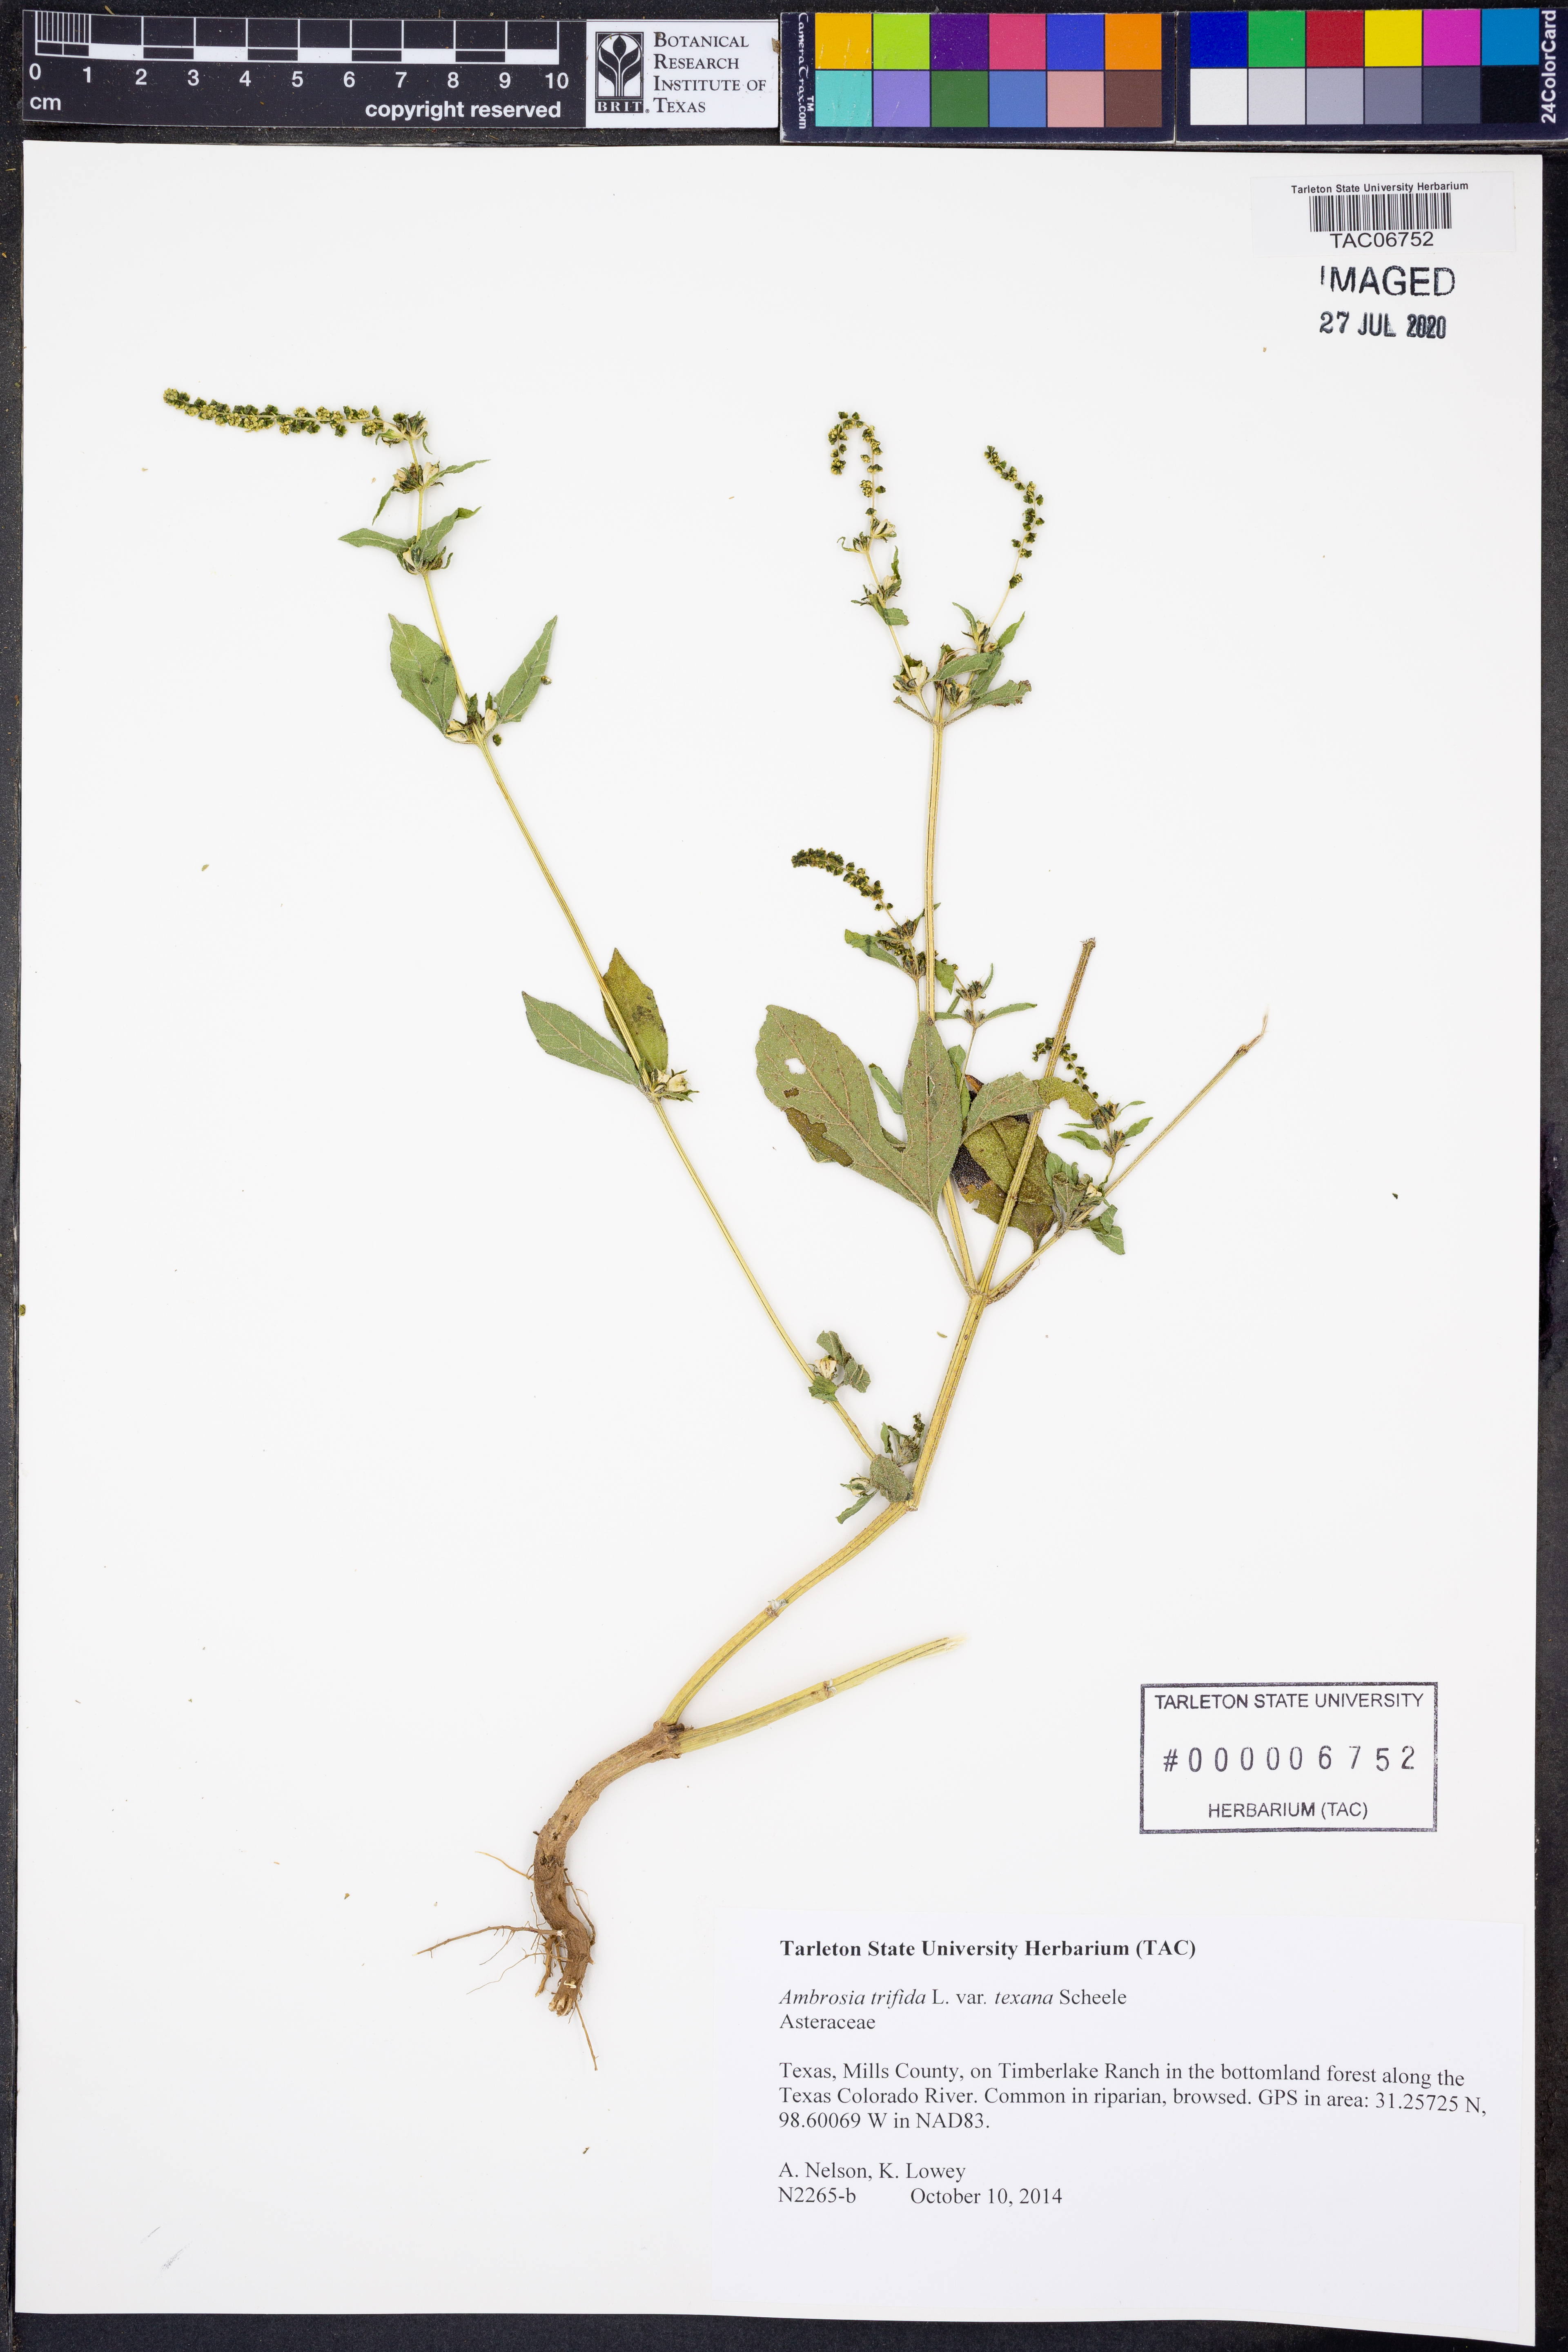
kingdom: Plantae
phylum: Tracheophyta
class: Magnoliopsida
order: Asterales
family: Asteraceae
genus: Ambrosia
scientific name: Ambrosia trifida
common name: Giant ragweed
